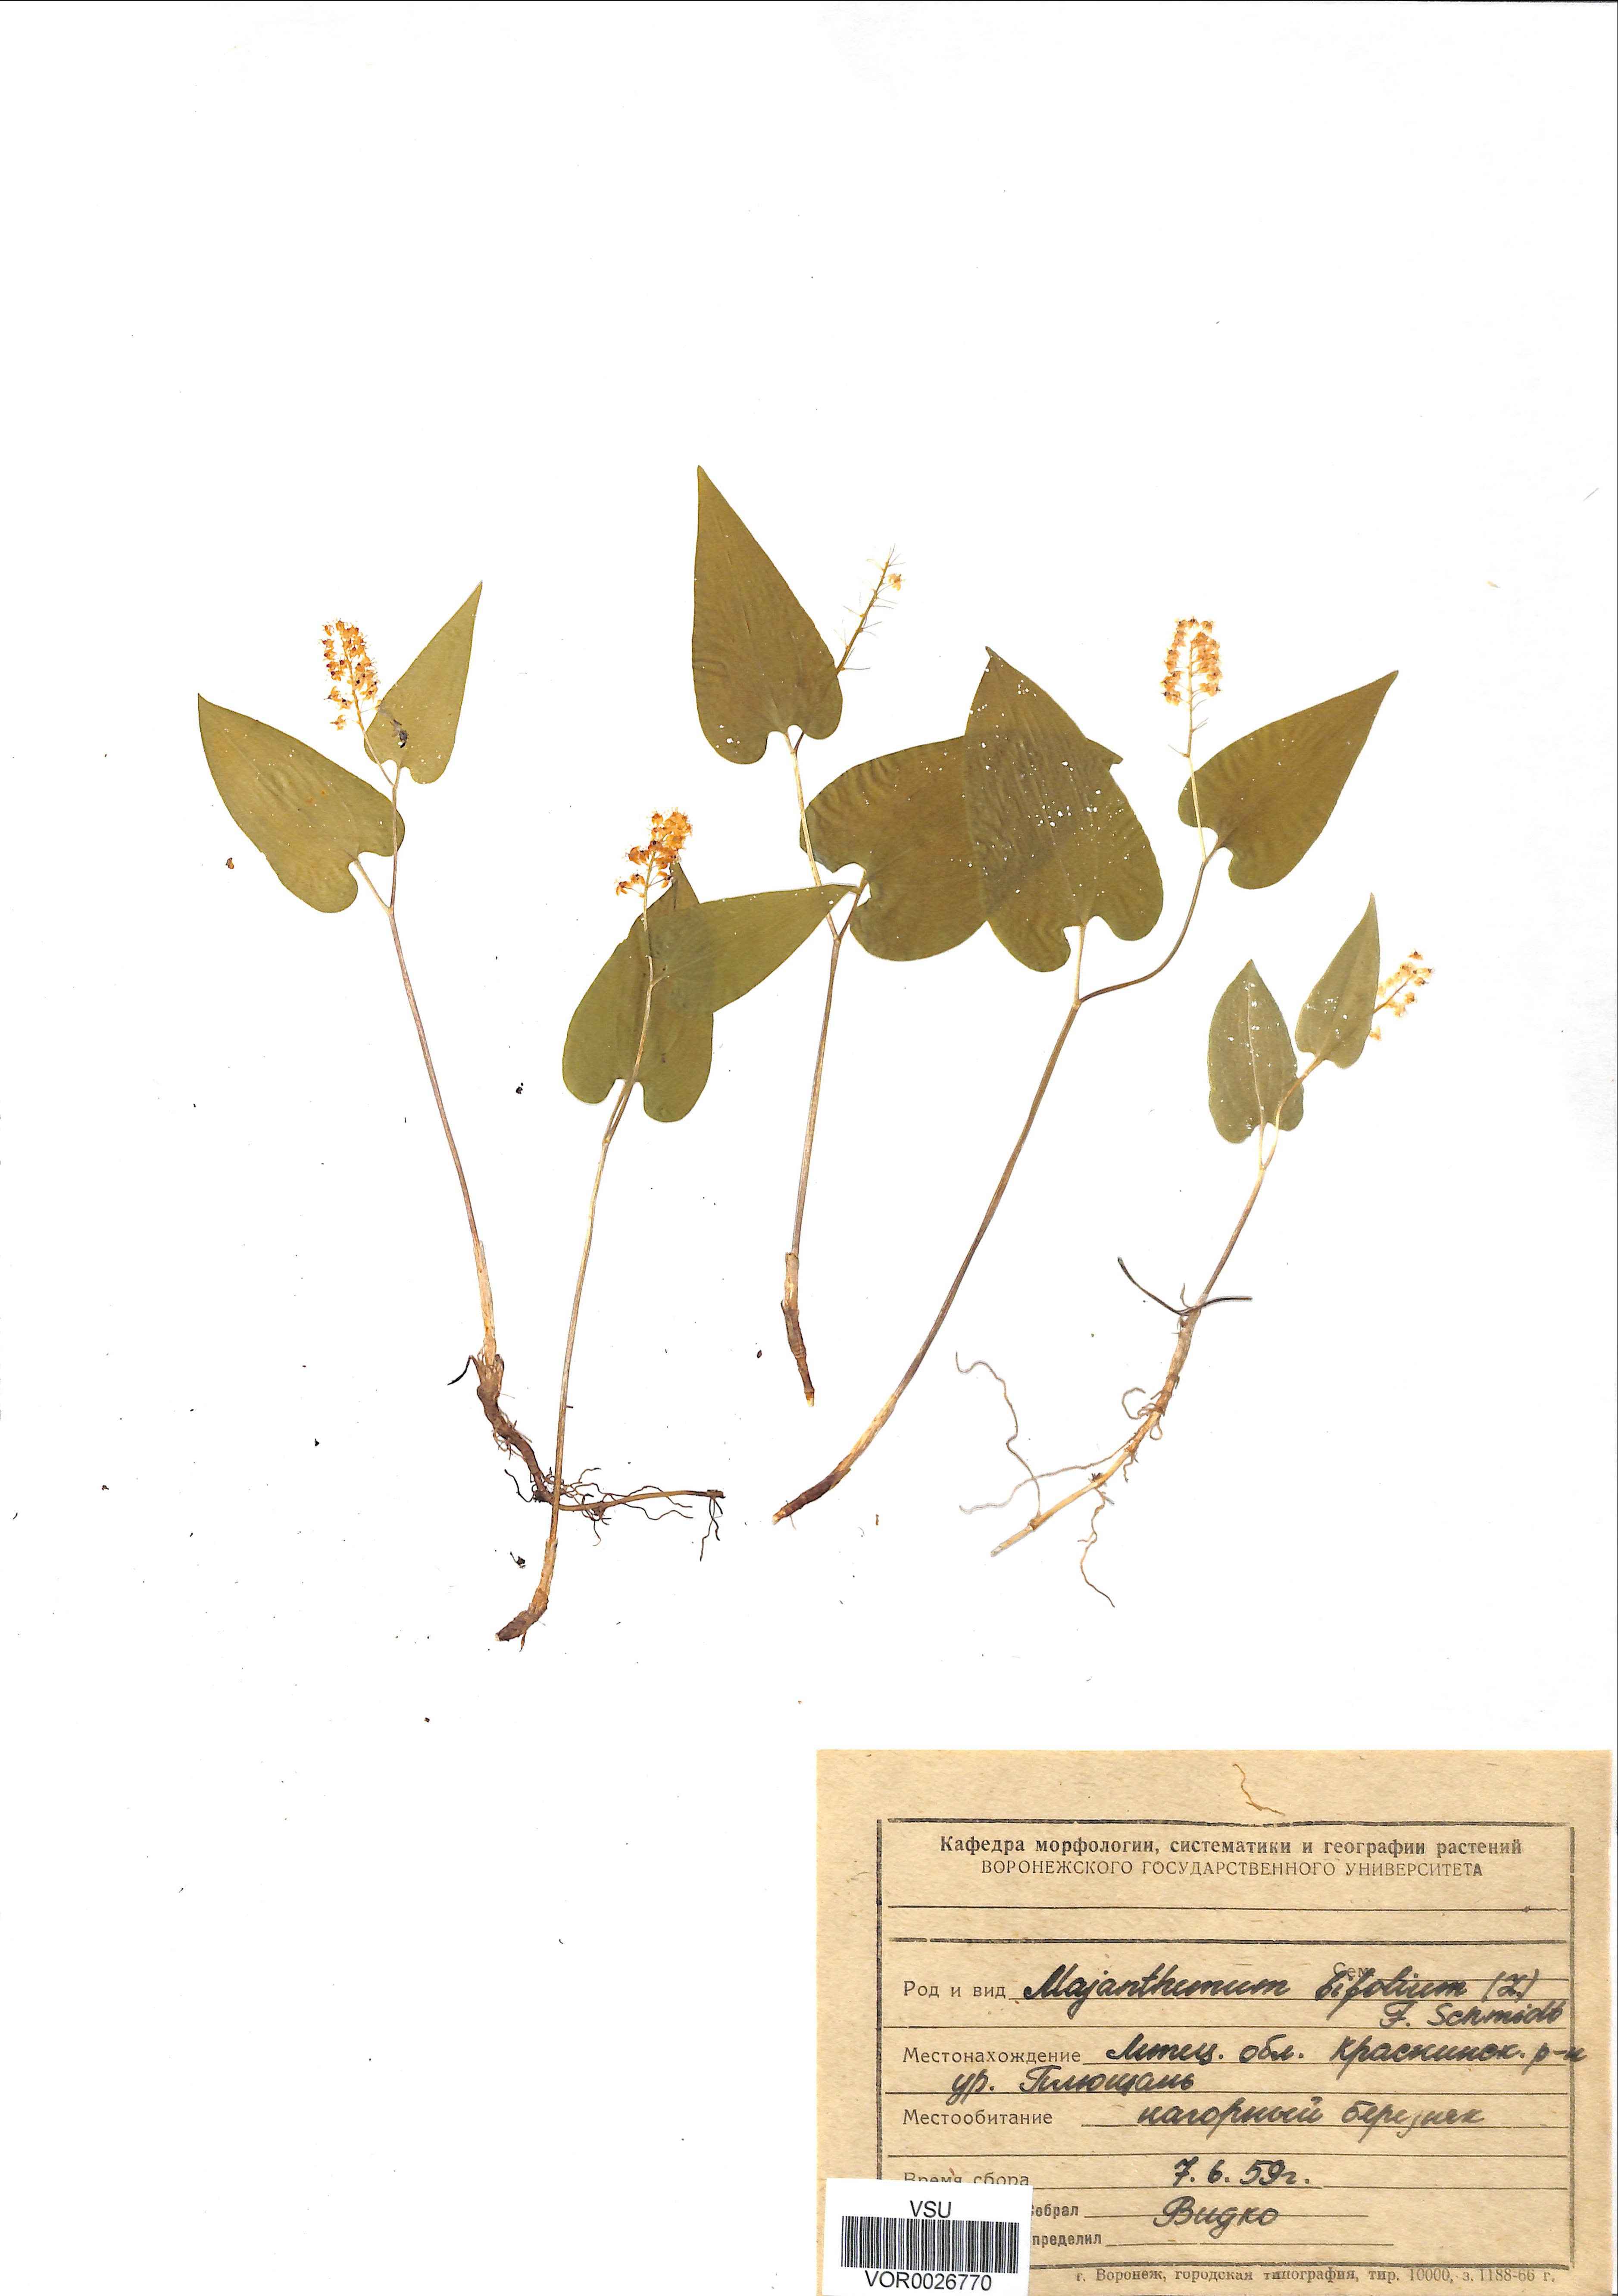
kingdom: Plantae
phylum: Tracheophyta
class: Liliopsida
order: Asparagales
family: Asparagaceae
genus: Maianthemum
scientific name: Maianthemum bifolium
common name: May lily
